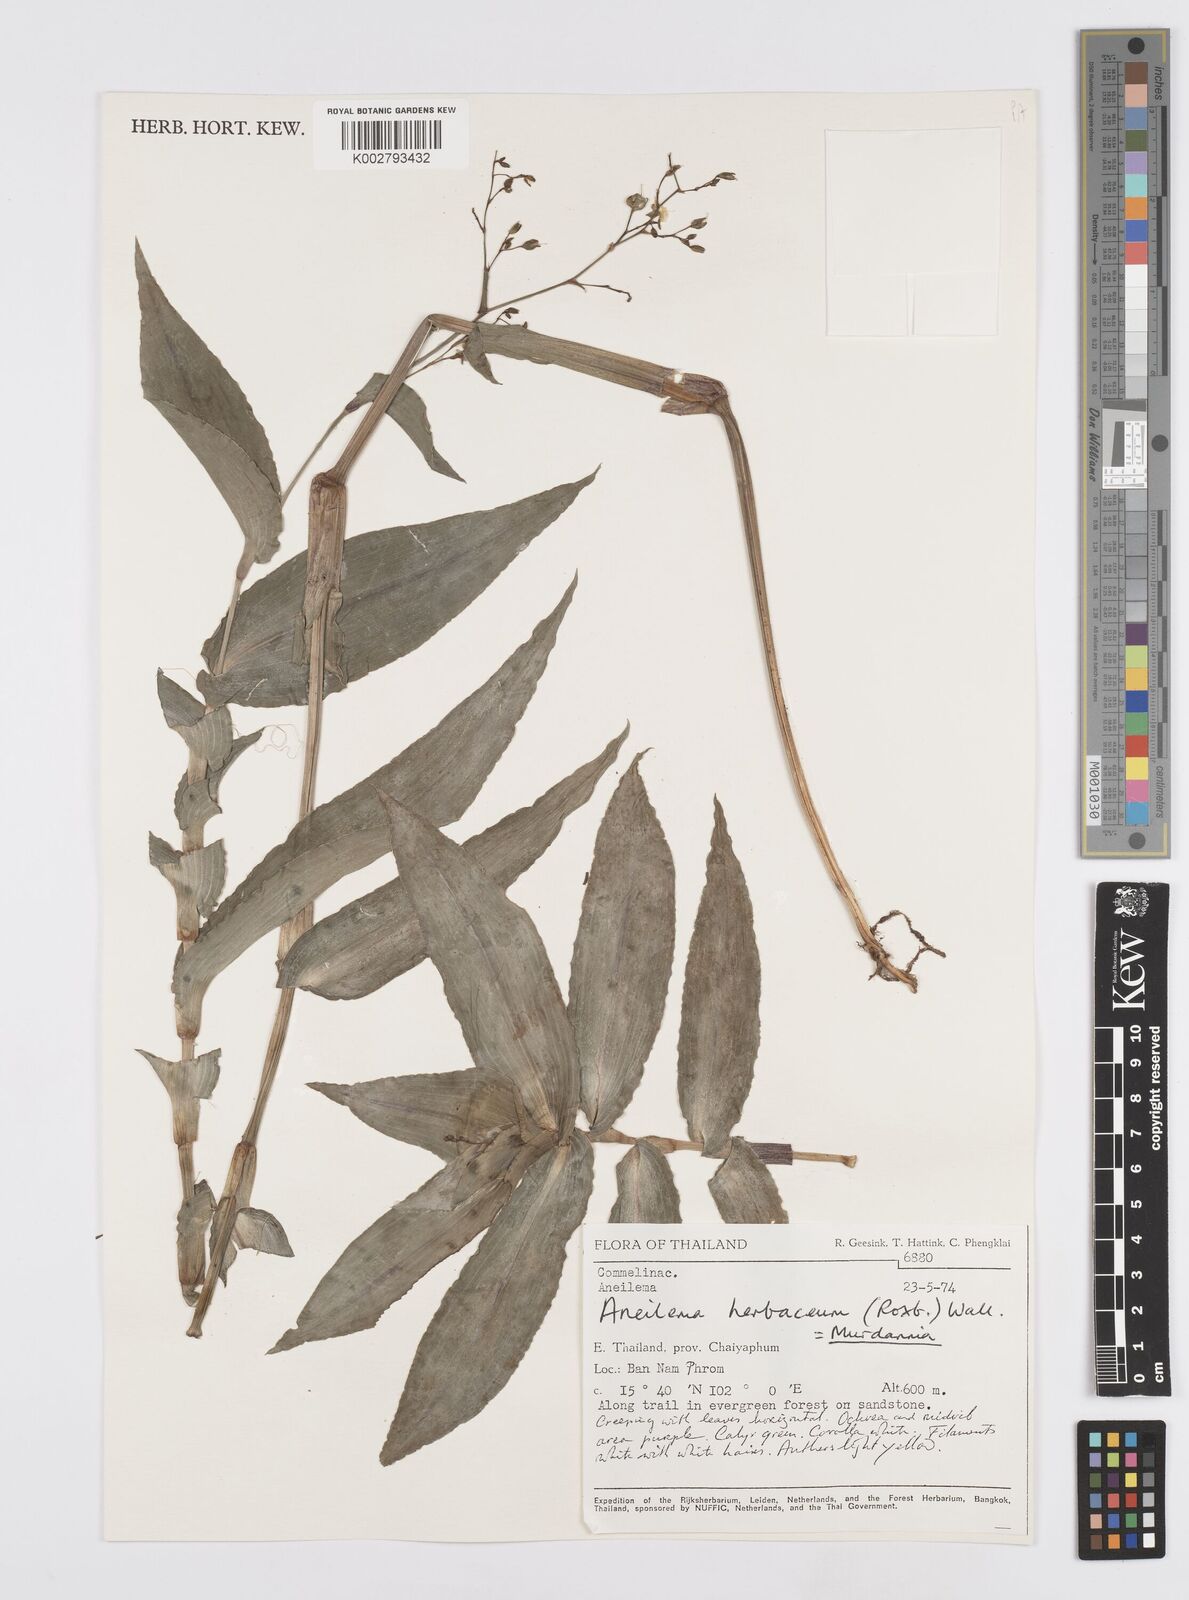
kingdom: Plantae
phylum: Tracheophyta
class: Liliopsida
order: Commelinales
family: Commelinaceae
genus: Murdannia
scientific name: Murdannia
